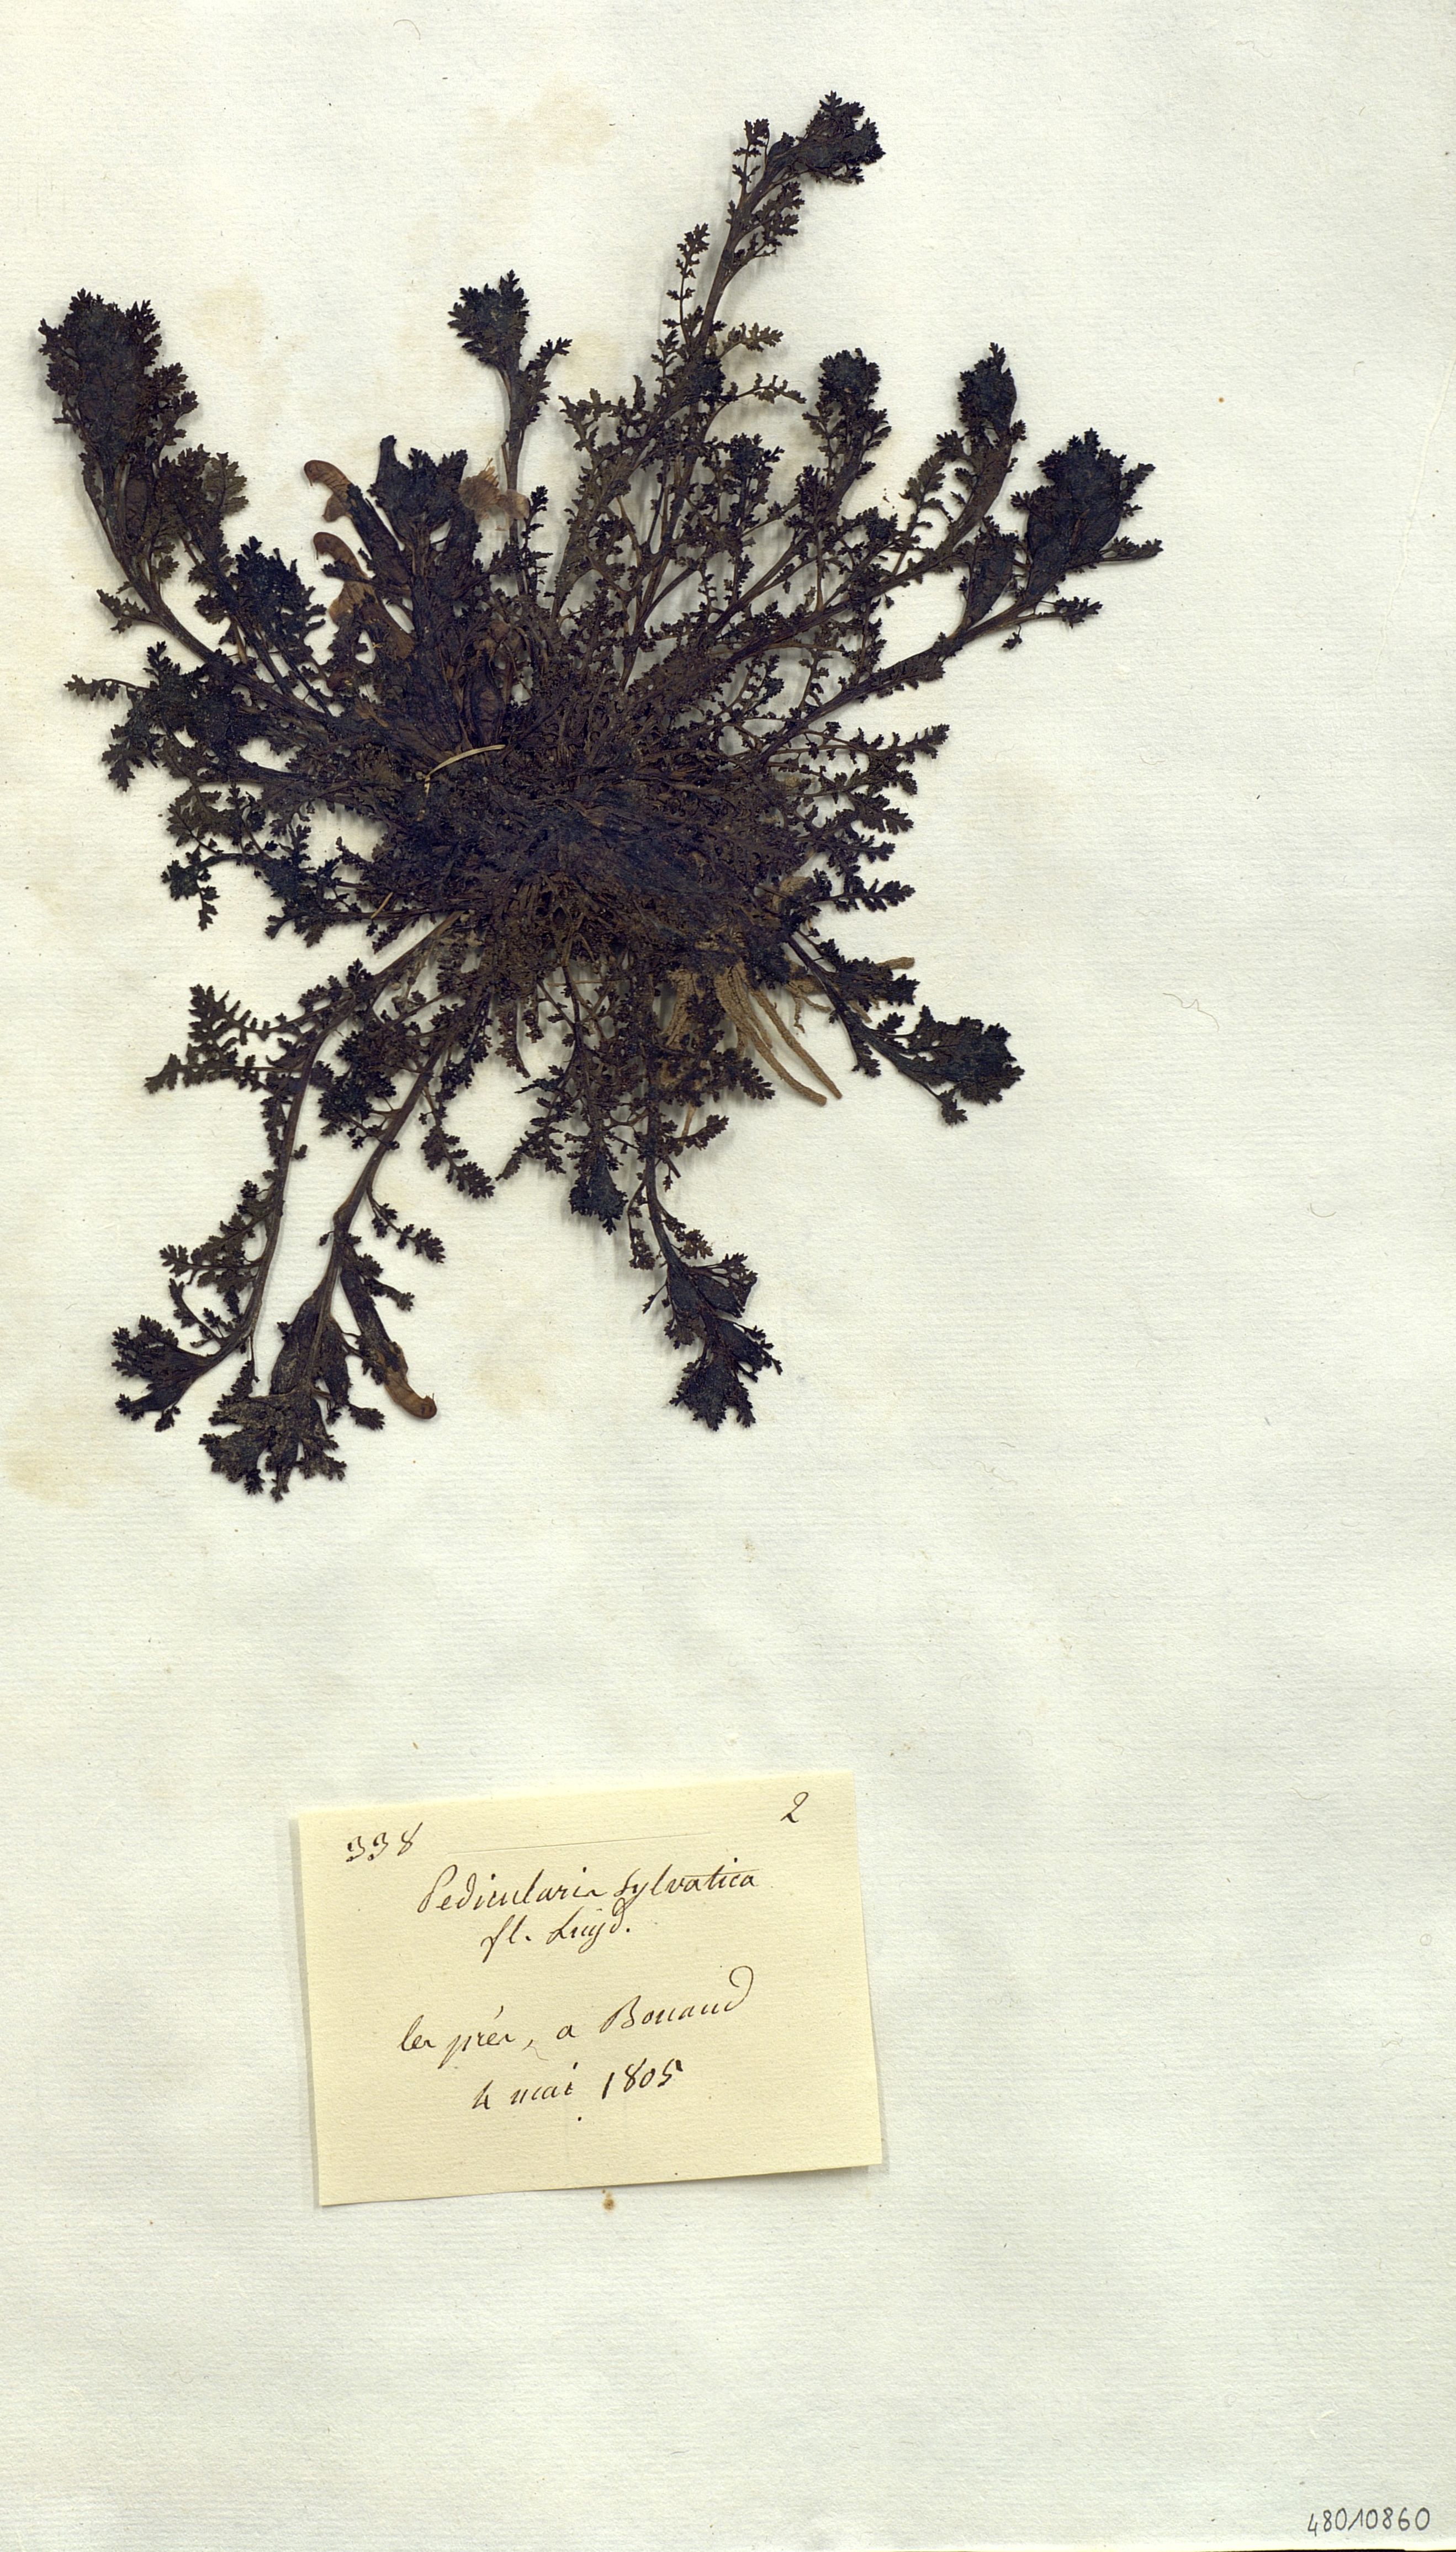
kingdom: Plantae
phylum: Tracheophyta
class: Magnoliopsida
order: Lamiales
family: Orobanchaceae
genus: Pedicularis
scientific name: Pedicularis sylvatica
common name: Lousewort
